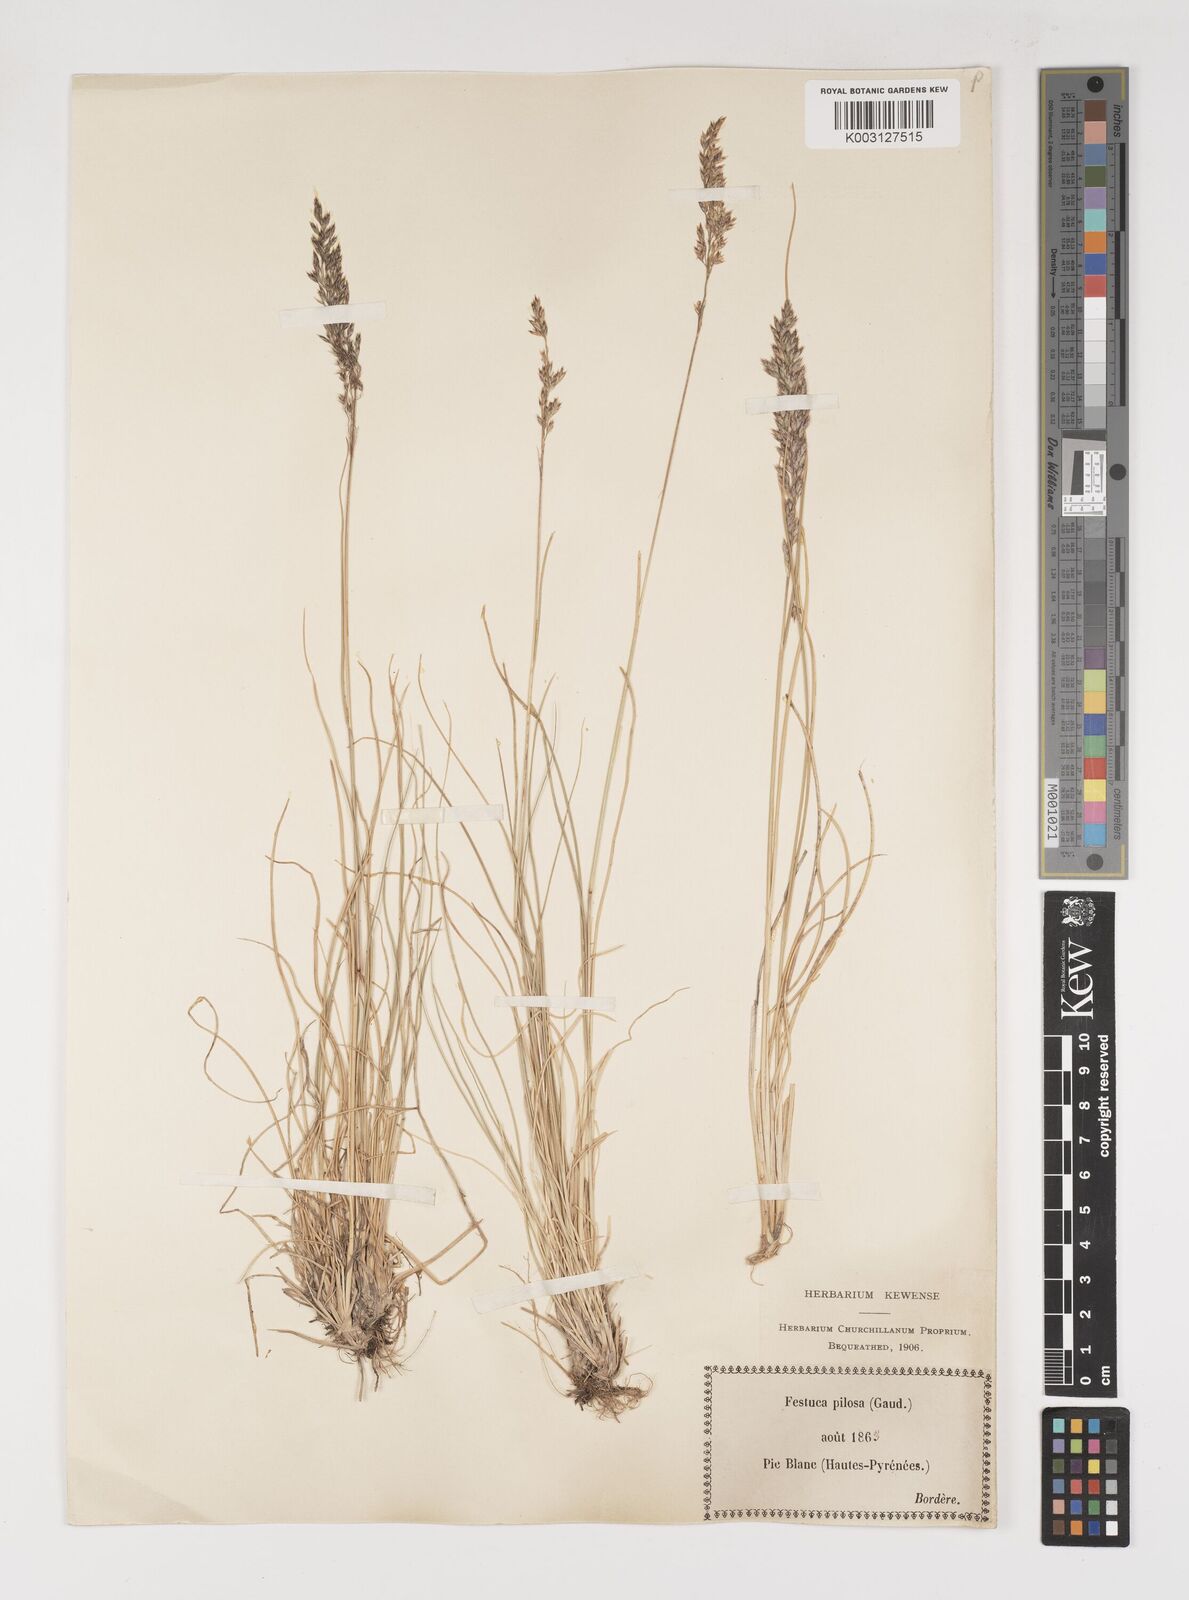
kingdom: Plantae
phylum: Tracheophyta
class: Liliopsida
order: Poales
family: Poaceae
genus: Bellardiochloa
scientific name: Bellardiochloa variegata
